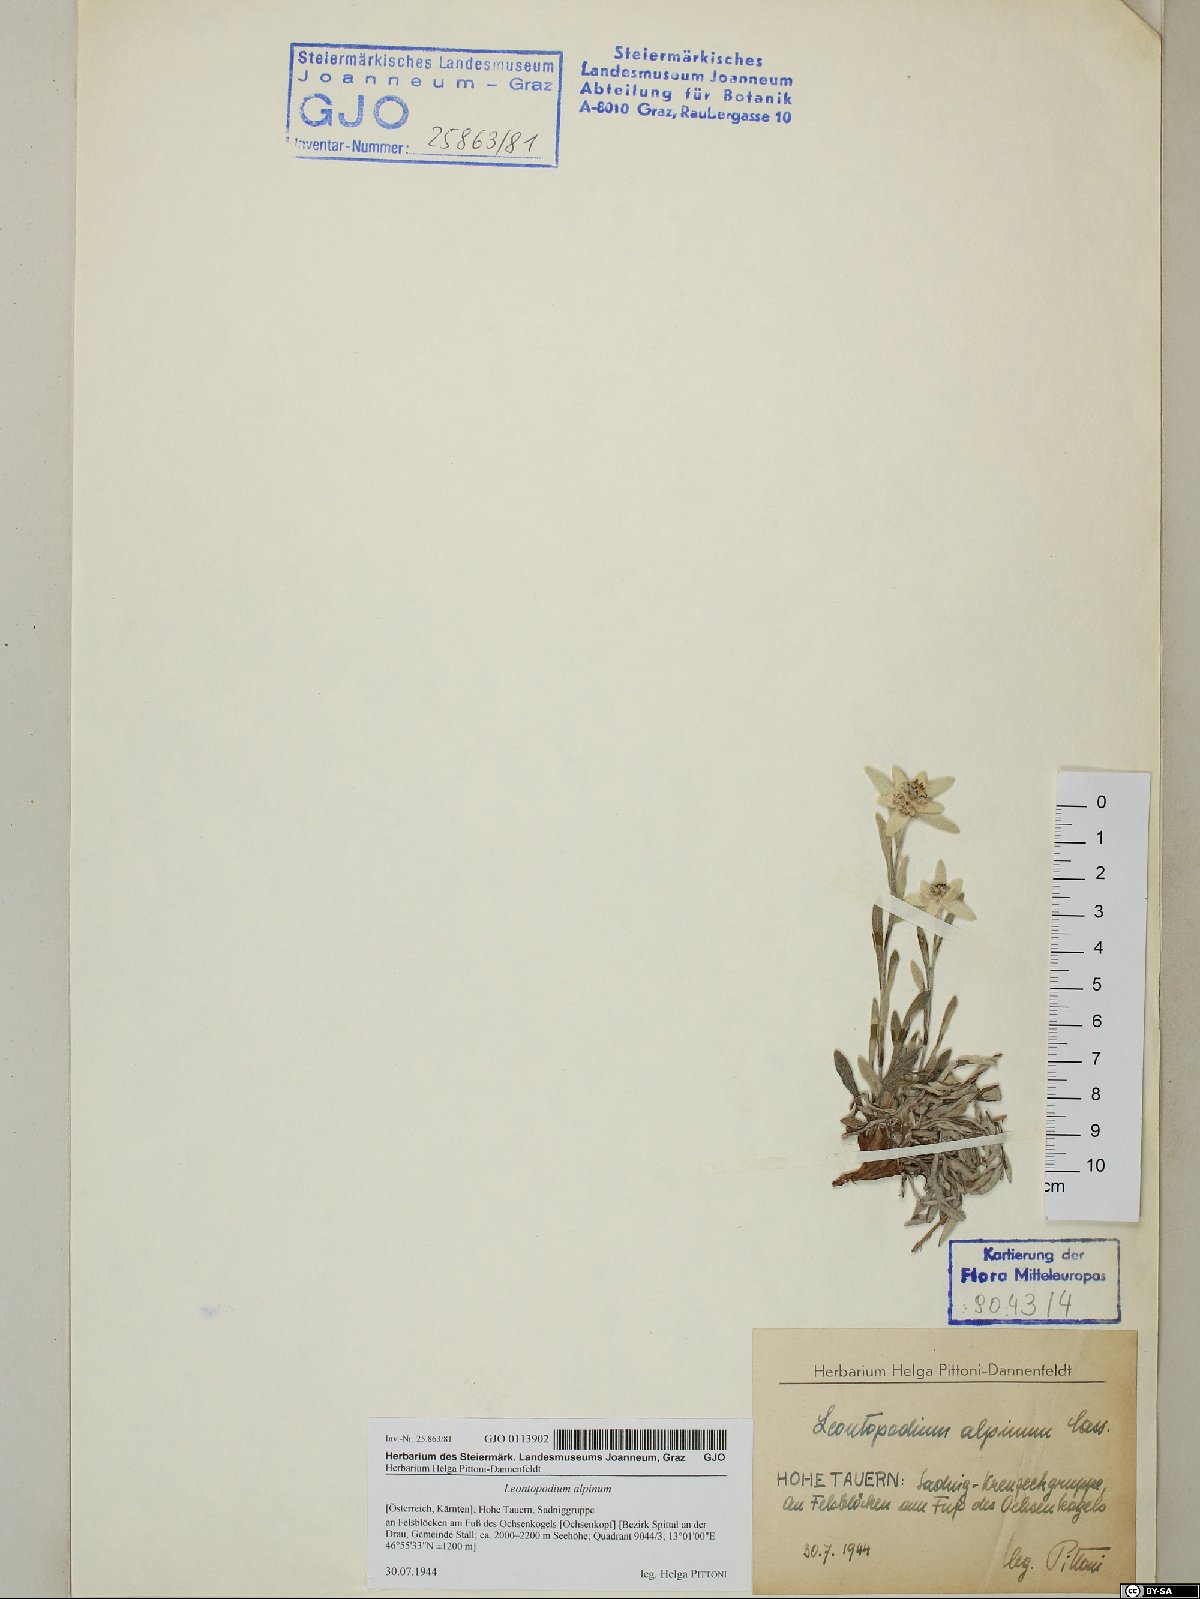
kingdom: Plantae
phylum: Tracheophyta
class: Magnoliopsida
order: Asterales
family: Asteraceae
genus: Leontopodium
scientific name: Leontopodium nivale
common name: Edelweiss
